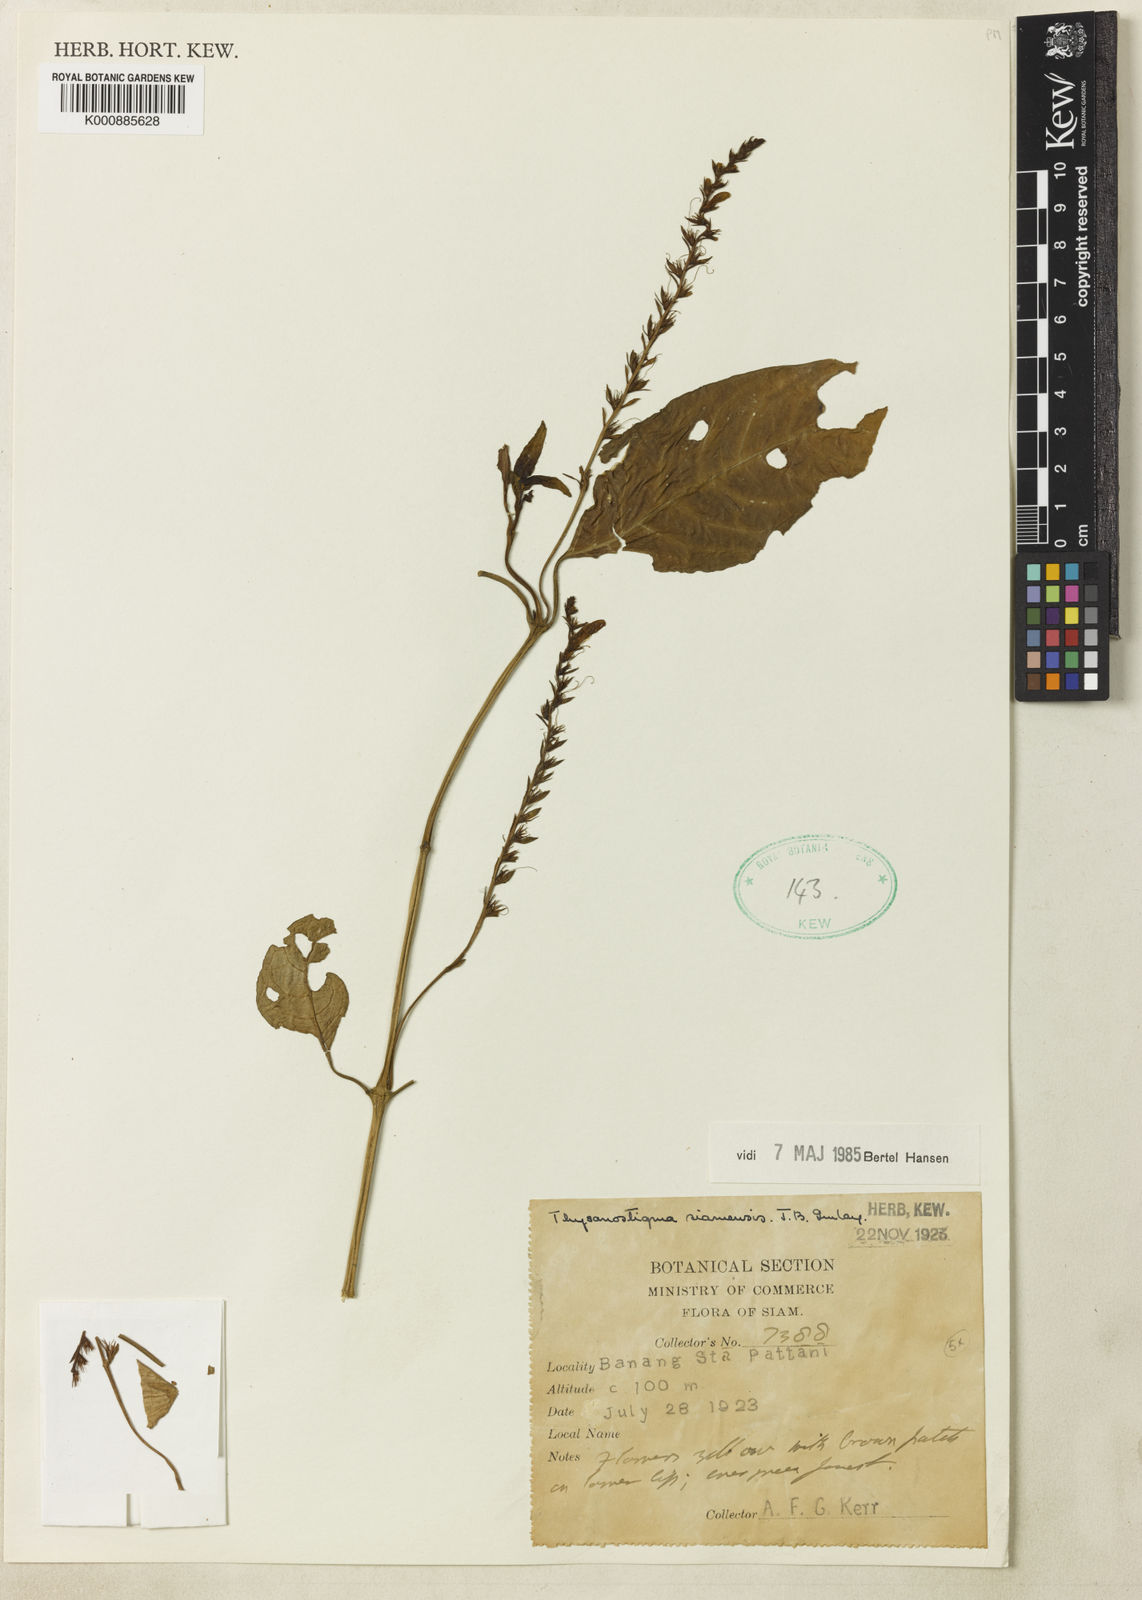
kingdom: Plantae
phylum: Tracheophyta
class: Magnoliopsida
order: Lamiales
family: Acanthaceae
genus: Thysanostigma
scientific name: Thysanostigma siamense
